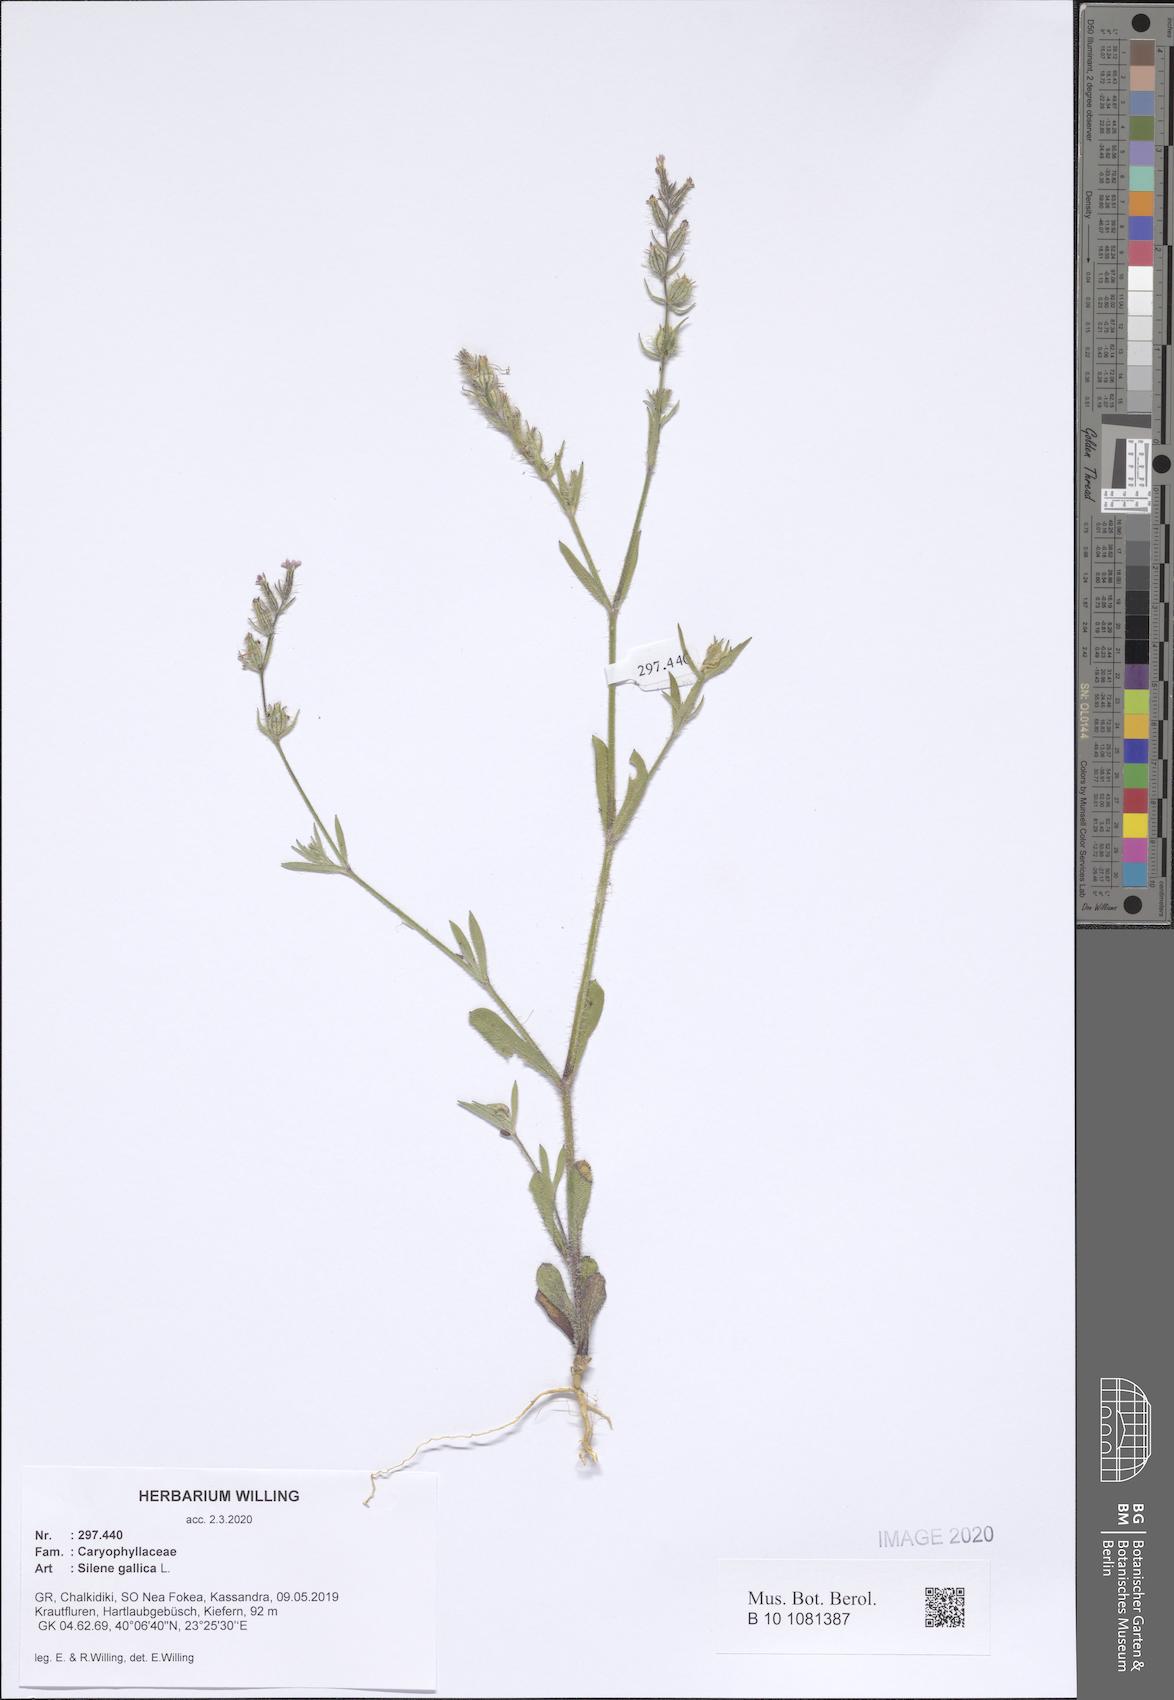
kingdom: Plantae
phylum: Tracheophyta
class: Magnoliopsida
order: Caryophyllales
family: Caryophyllaceae
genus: Silene
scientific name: Silene gallica
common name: Small-flowered catchfly
